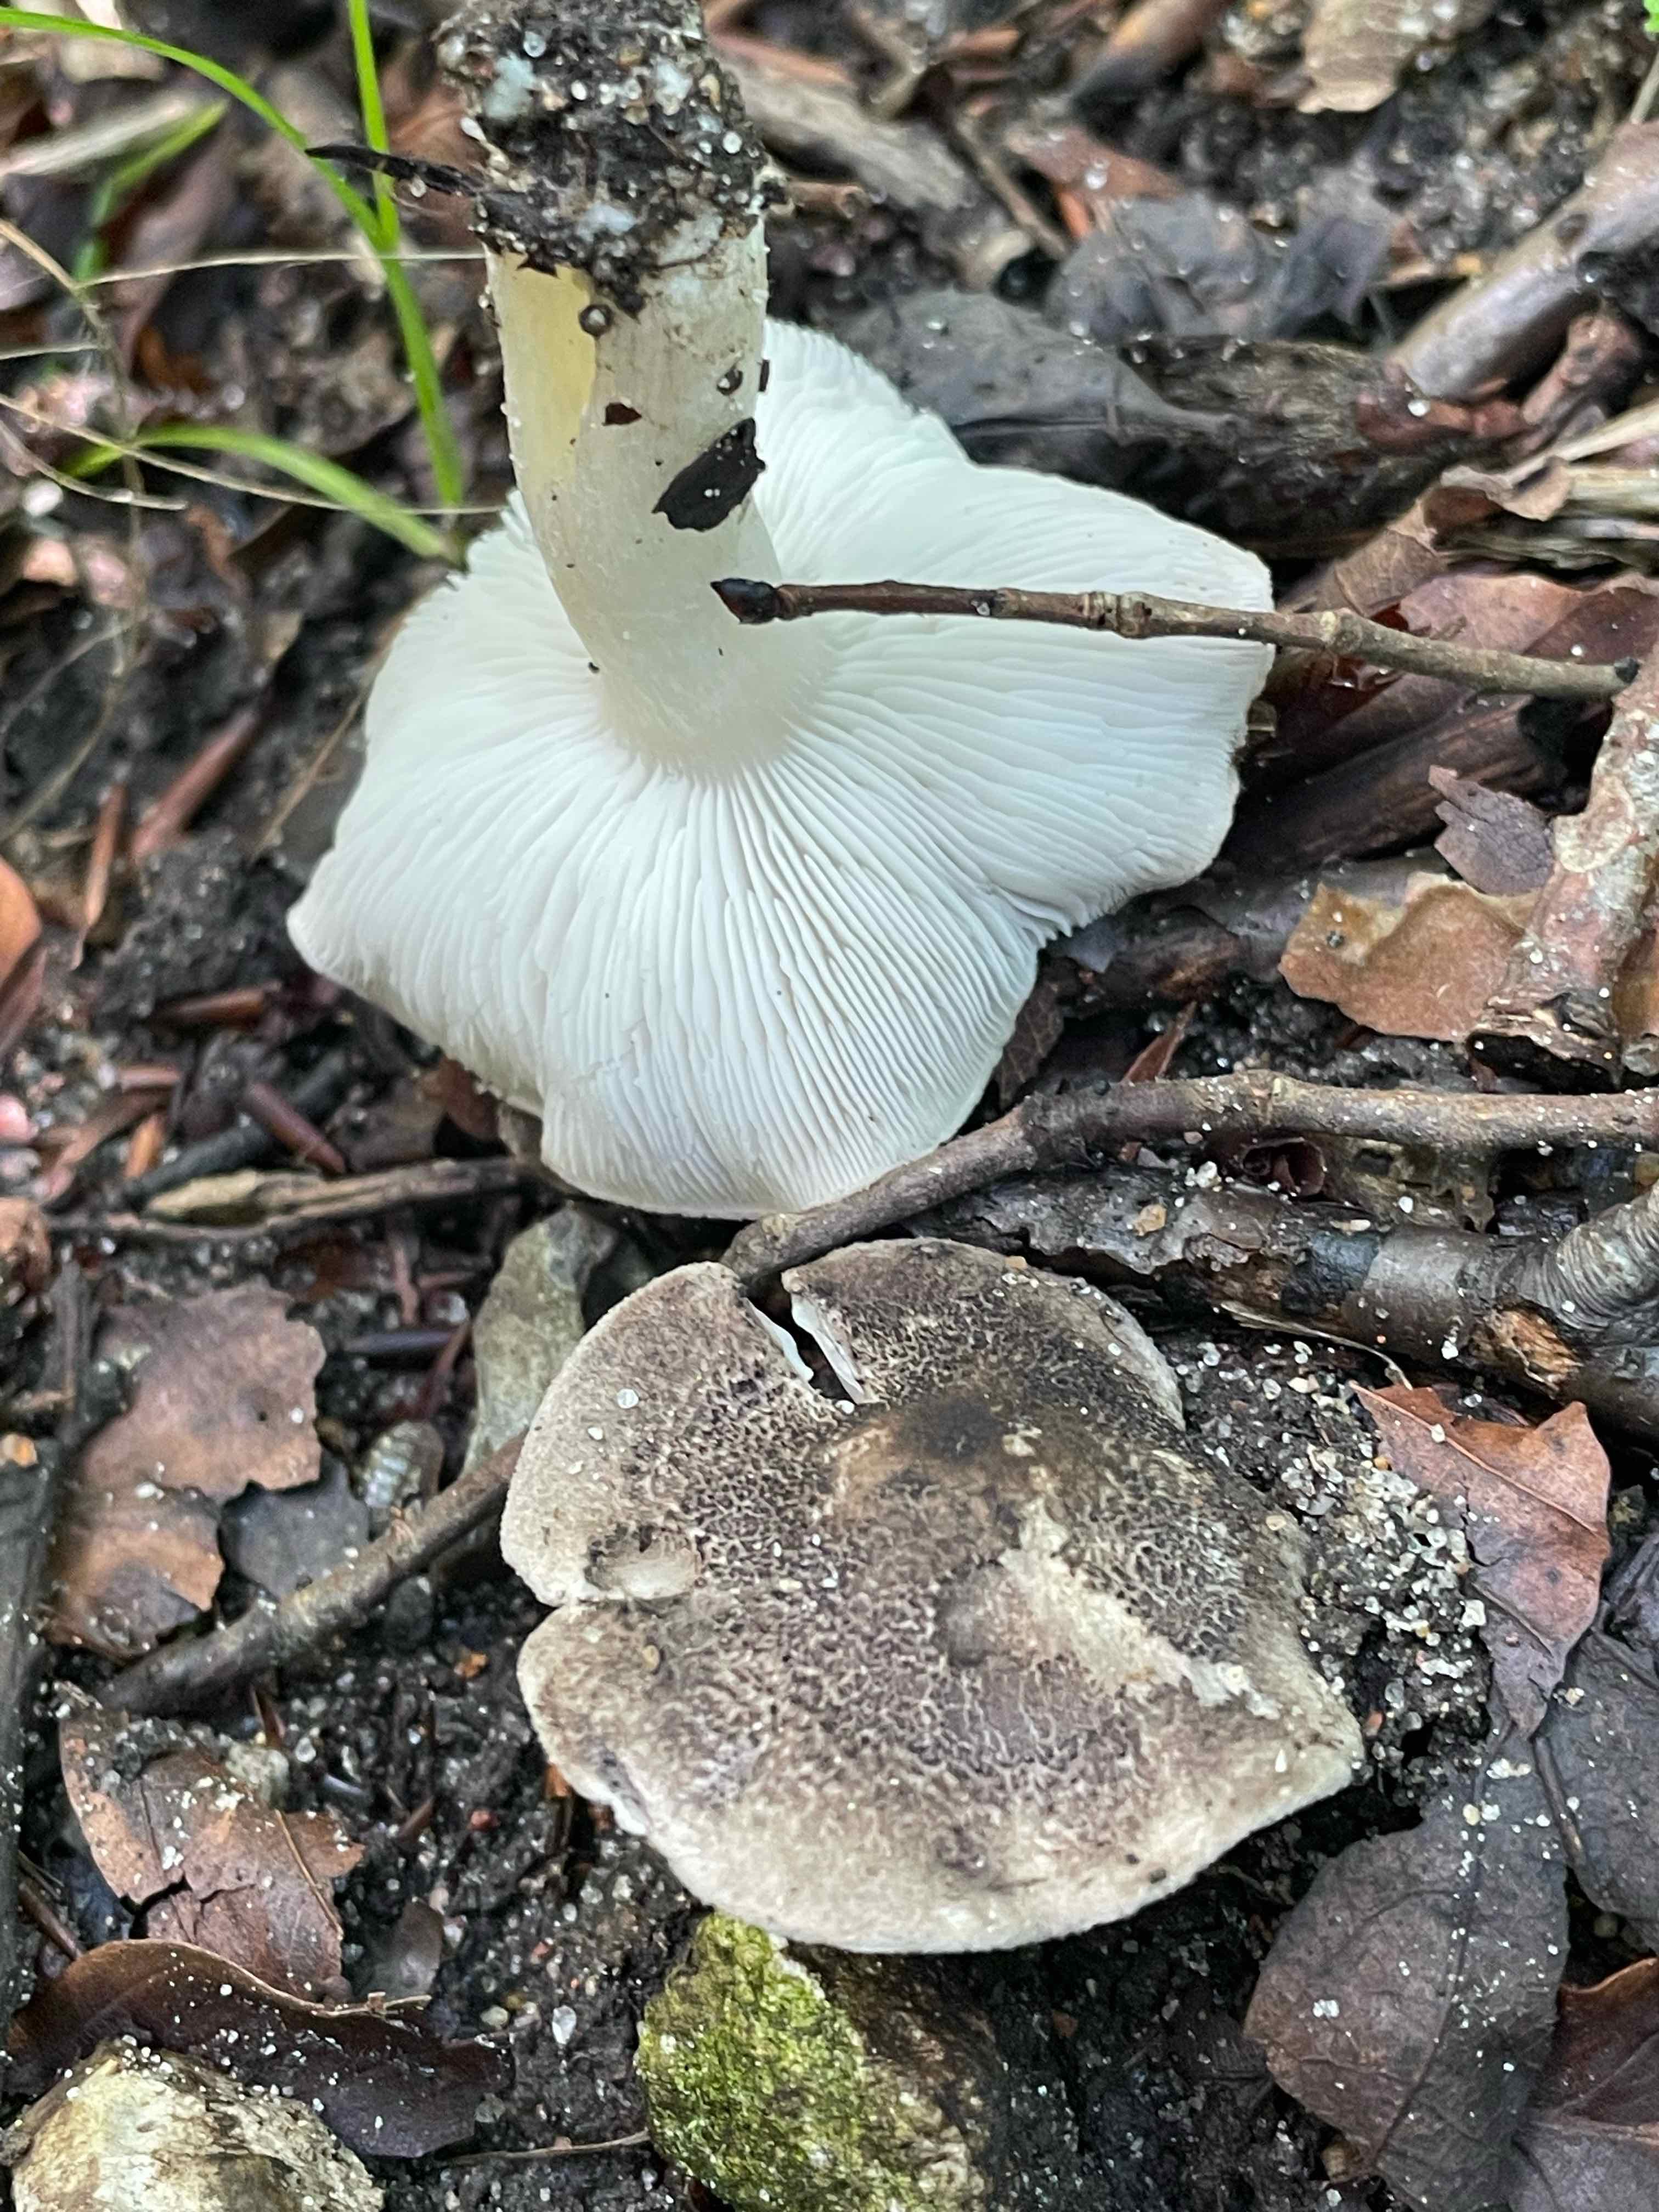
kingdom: Fungi
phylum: Basidiomycota
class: Agaricomycetes
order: Agaricales
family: Tricholomataceae
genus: Tricholoma
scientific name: Tricholoma
